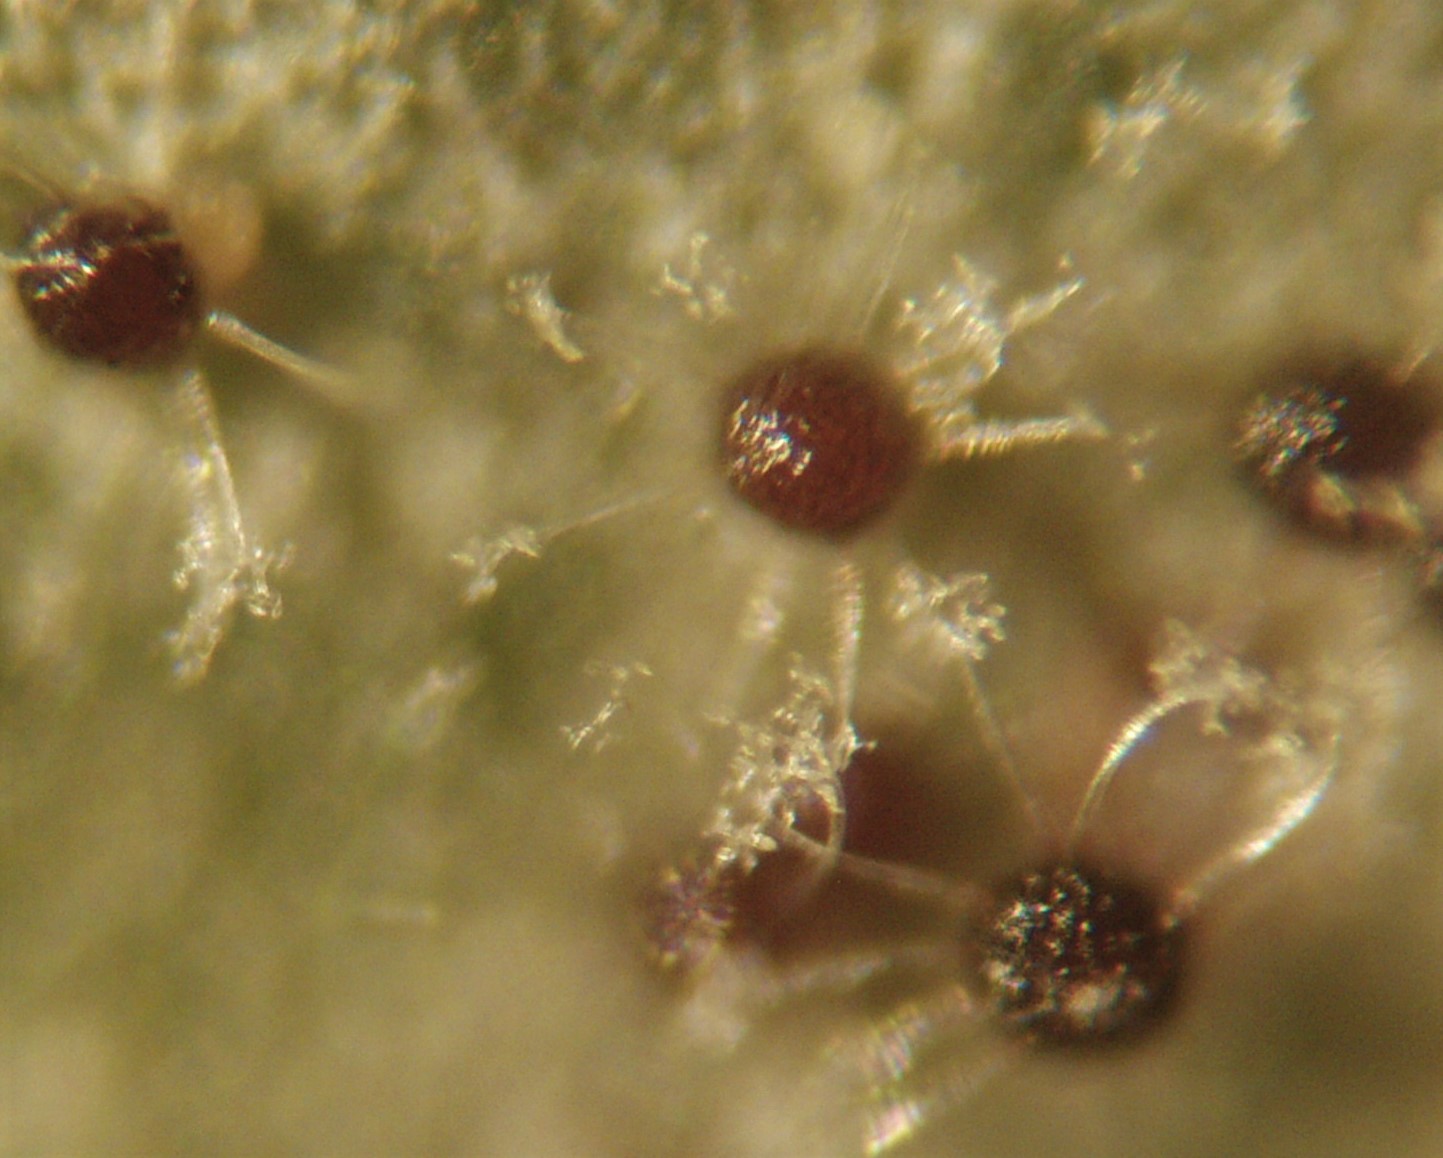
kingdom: Fungi
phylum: Ascomycota
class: Leotiomycetes
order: Helotiales
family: Erysiphaceae
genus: Erysiphe
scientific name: Erysiphe syringae-japonicae
